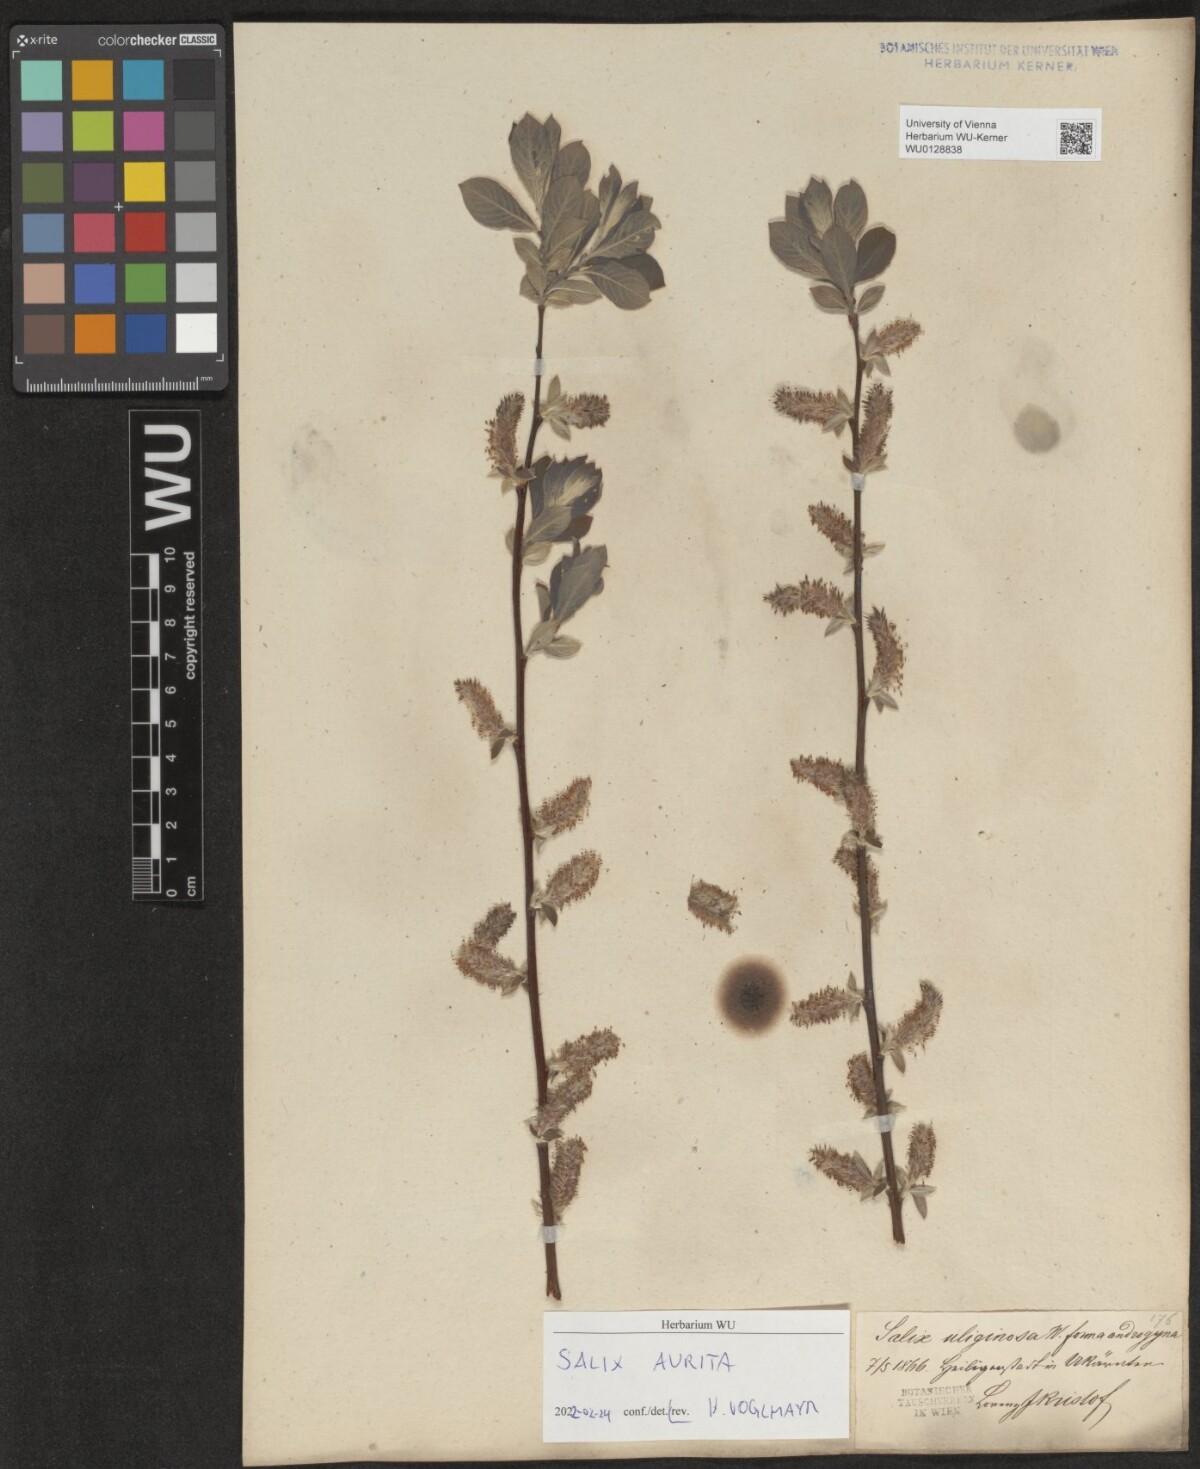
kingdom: Plantae
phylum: Tracheophyta
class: Magnoliopsida
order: Malpighiales
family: Salicaceae
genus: Salix
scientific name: Salix aurita
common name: Eared willow
